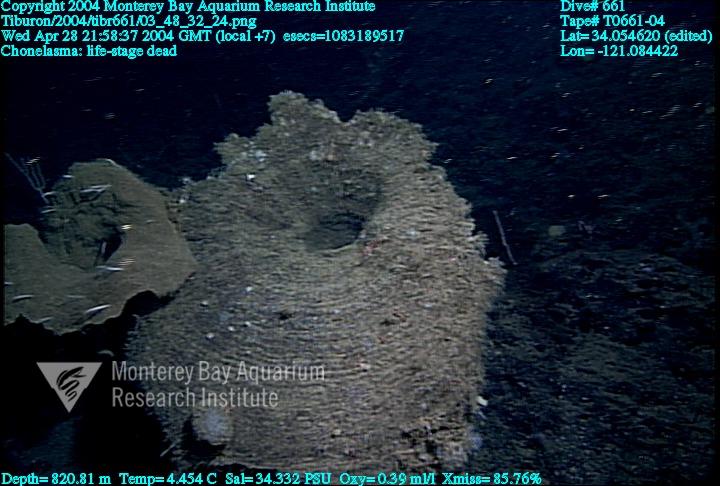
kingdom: Animalia
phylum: Porifera
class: Hexactinellida
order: Sceptrulophora
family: Euretidae
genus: Chonelasma
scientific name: Chonelasma
